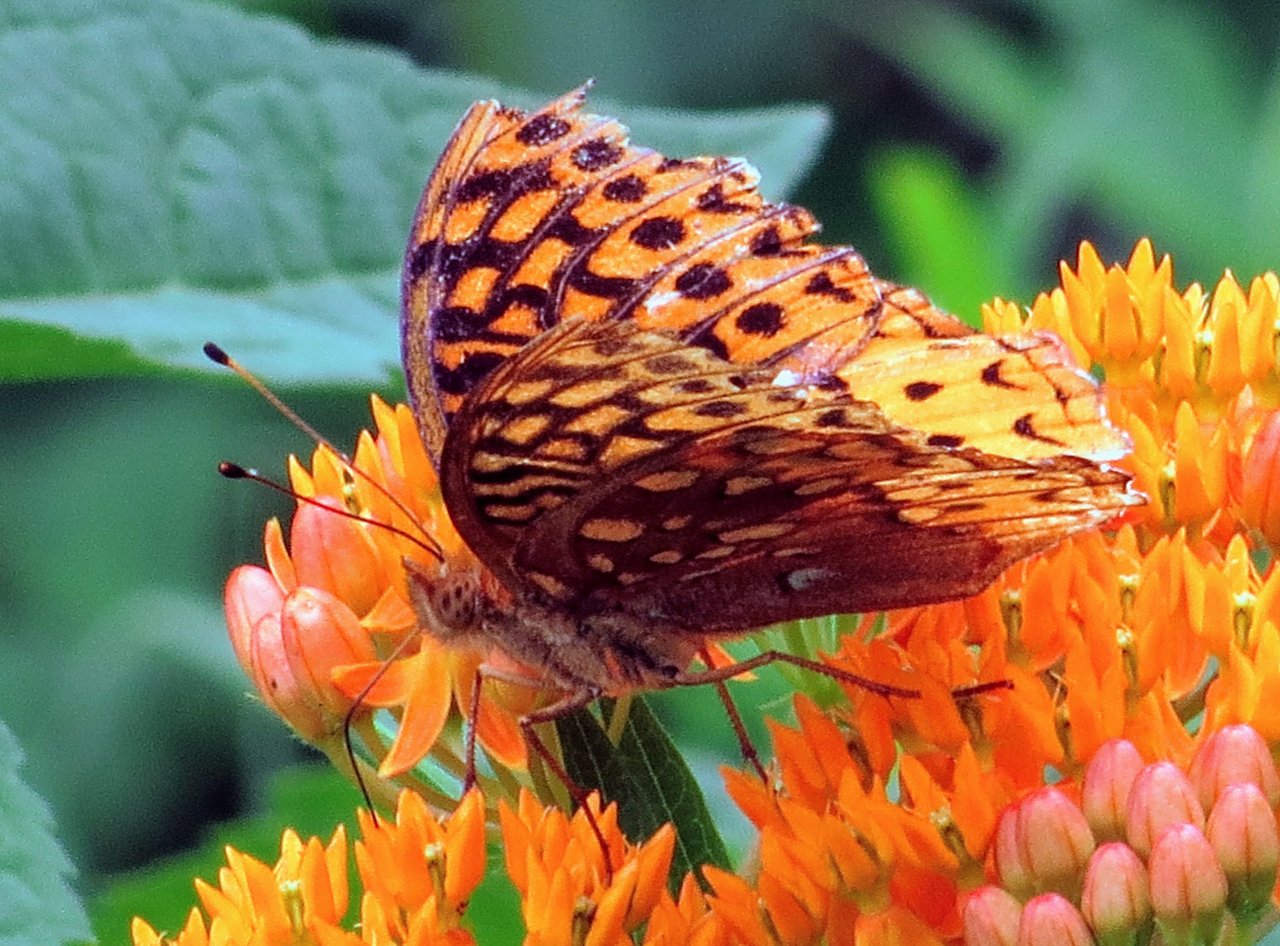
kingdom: Animalia
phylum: Arthropoda
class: Insecta
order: Lepidoptera
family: Nymphalidae
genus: Speyeria
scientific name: Speyeria cybele
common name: Great Spangled Fritillary
